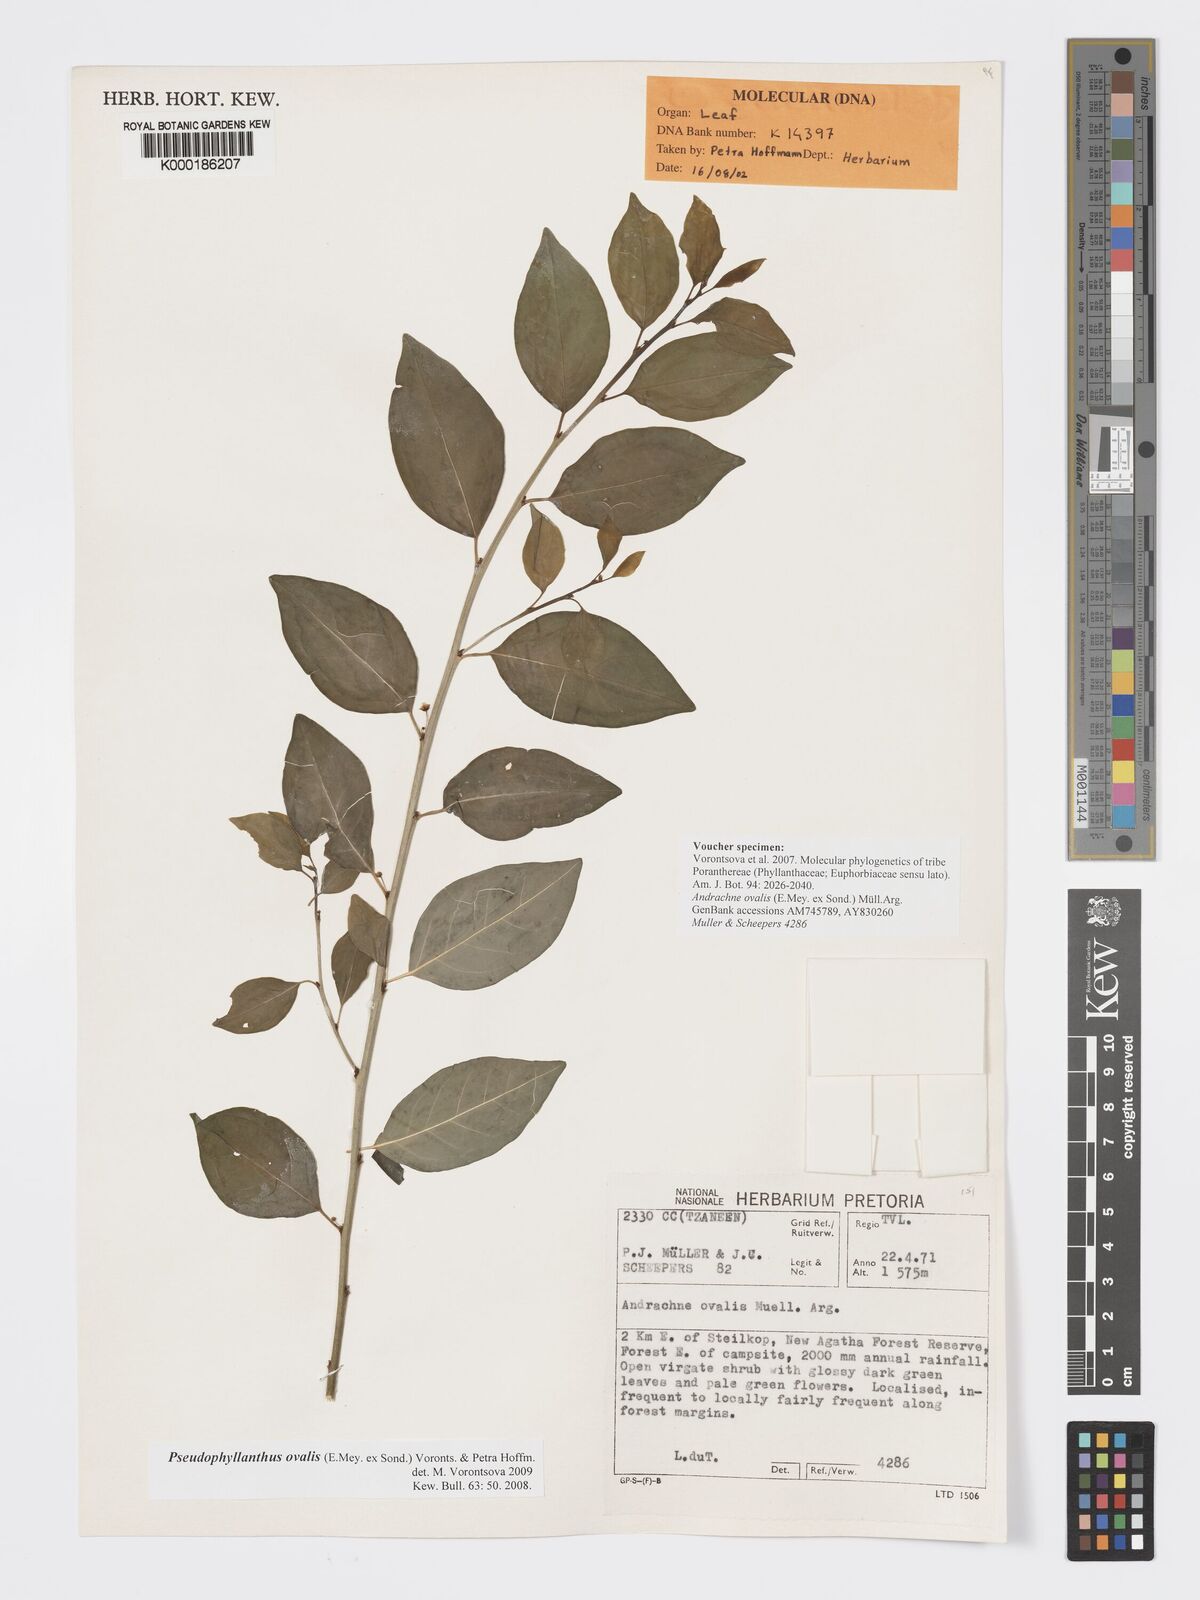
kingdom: Plantae
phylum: Tracheophyta
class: Magnoliopsida
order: Malpighiales
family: Phyllanthaceae
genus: Pseudophyllanthus
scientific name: Pseudophyllanthus ovalis
